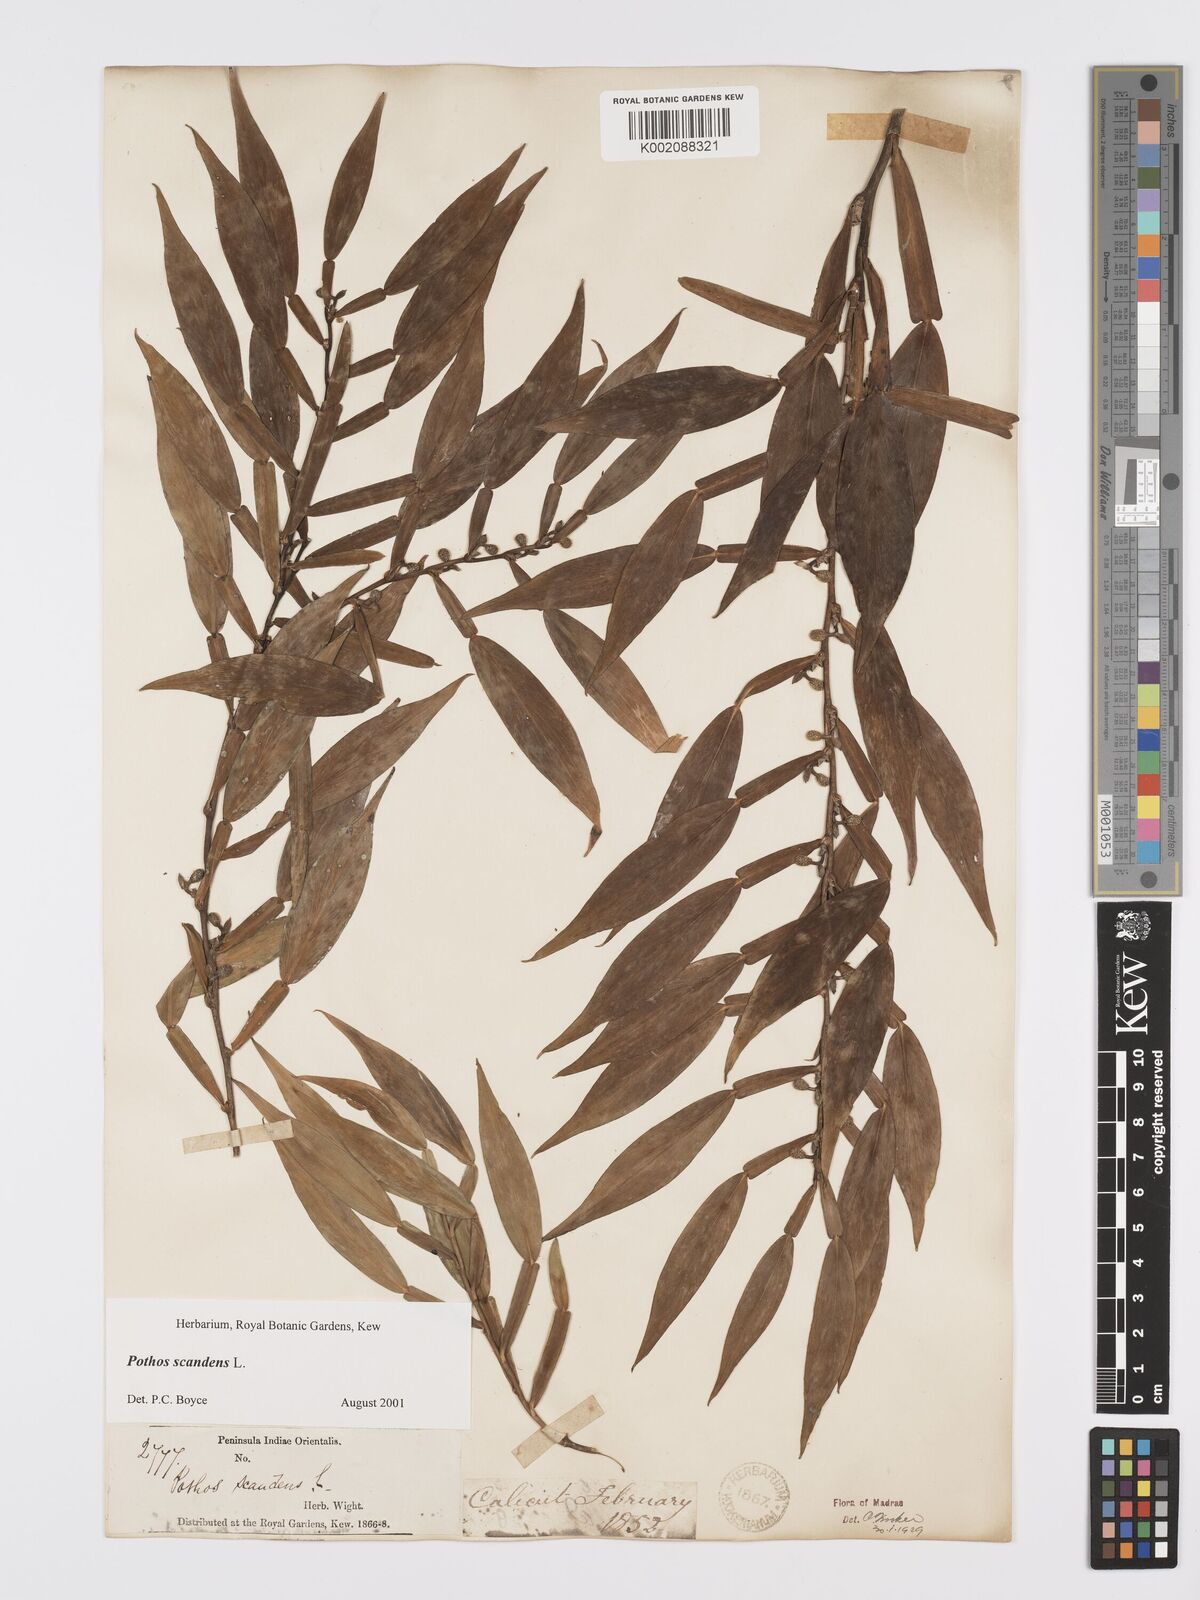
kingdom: Plantae
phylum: Tracheophyta
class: Liliopsida
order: Alismatales
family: Araceae
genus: Pothos
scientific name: Pothos scandens
